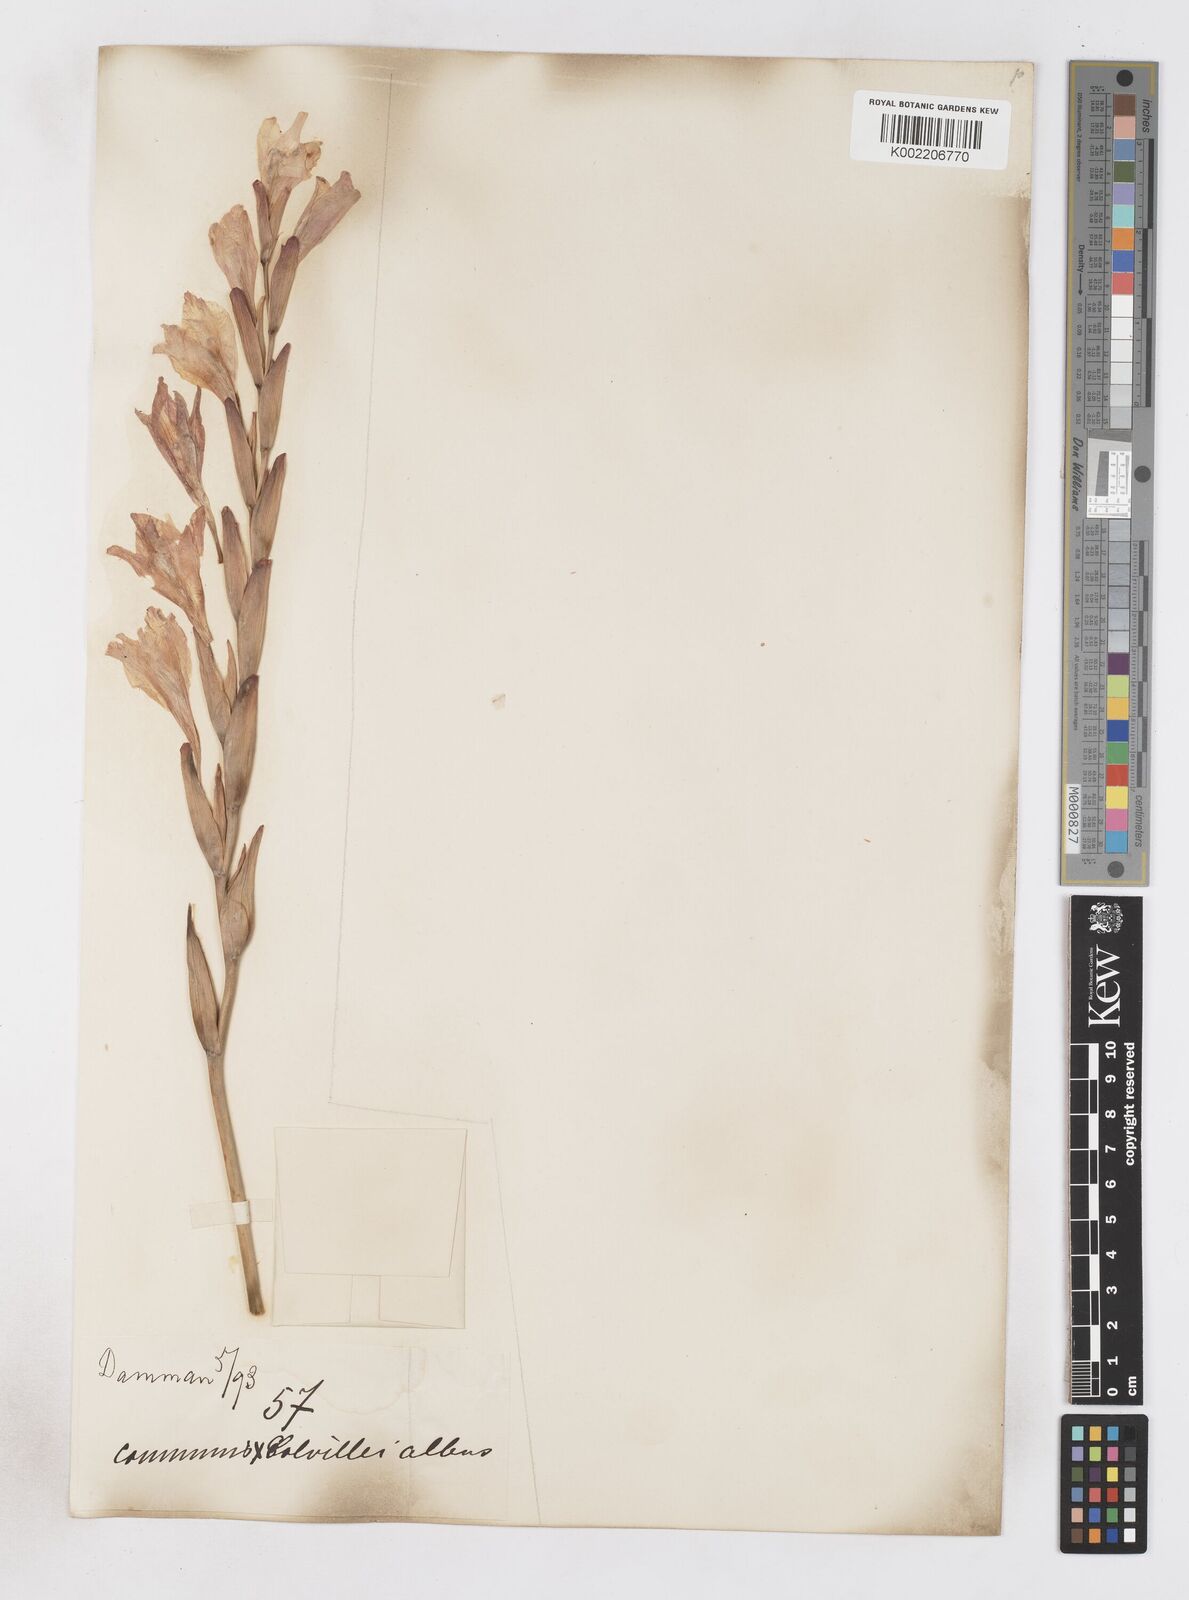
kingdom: Plantae
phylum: Tracheophyta
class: Liliopsida
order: Asparagales
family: Iridaceae
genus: Gladiolus
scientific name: Gladiolus communis
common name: Eastern gladiolus
